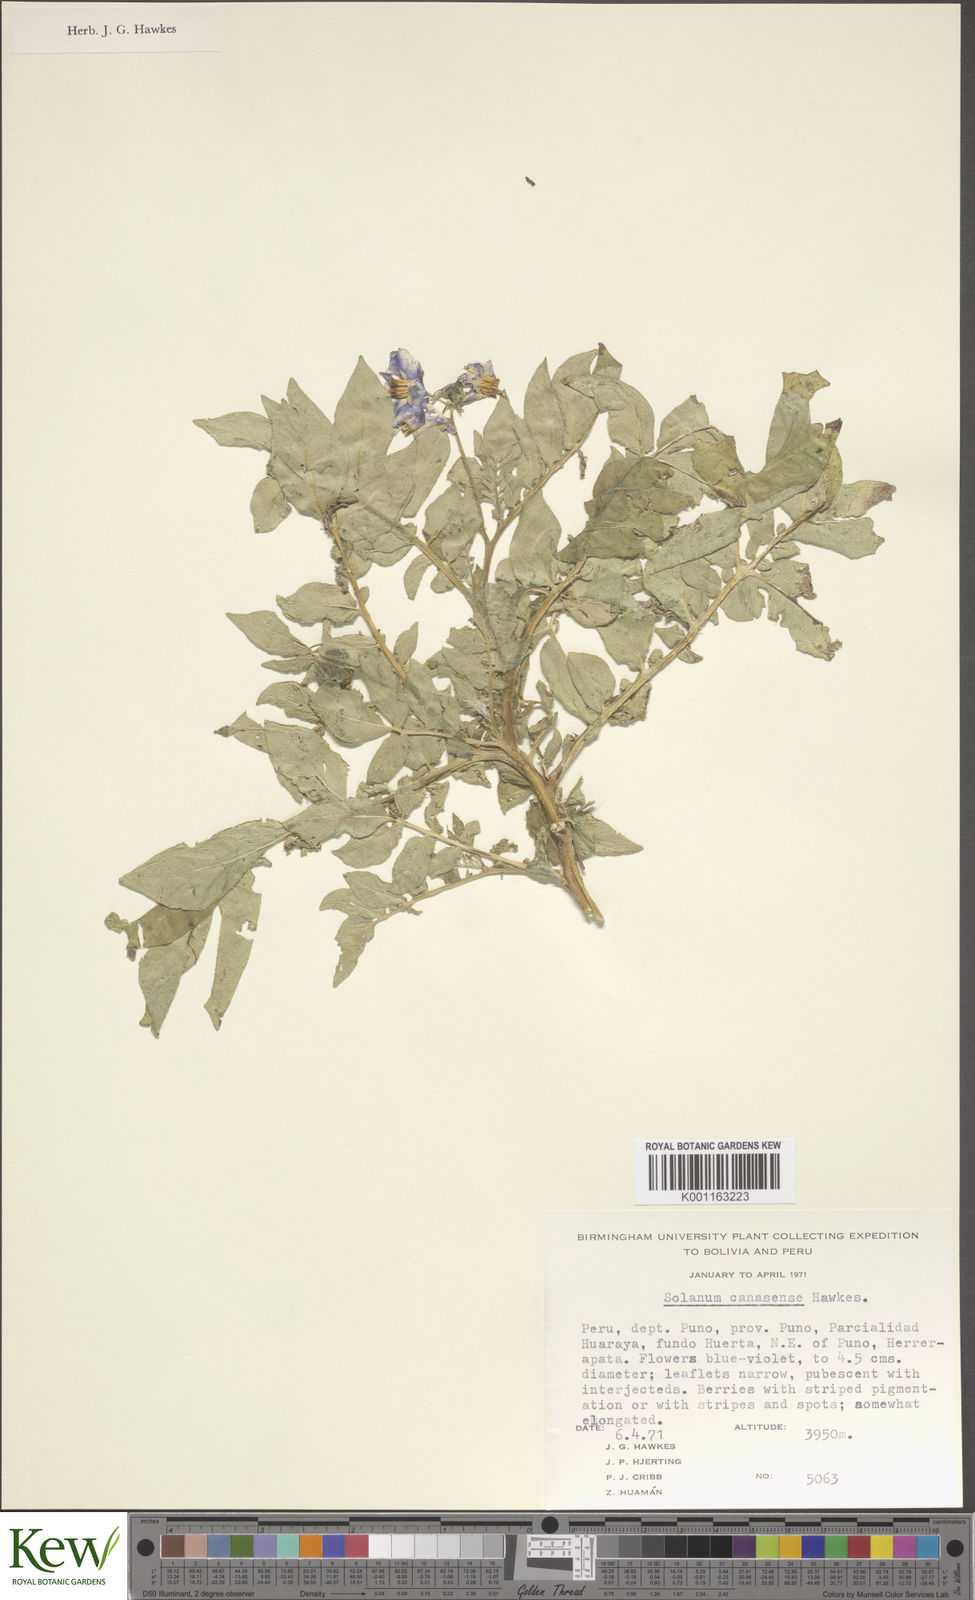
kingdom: Plantae
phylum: Tracheophyta
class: Magnoliopsida
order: Solanales
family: Solanaceae
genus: Solanum
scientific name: Solanum candolleanum
